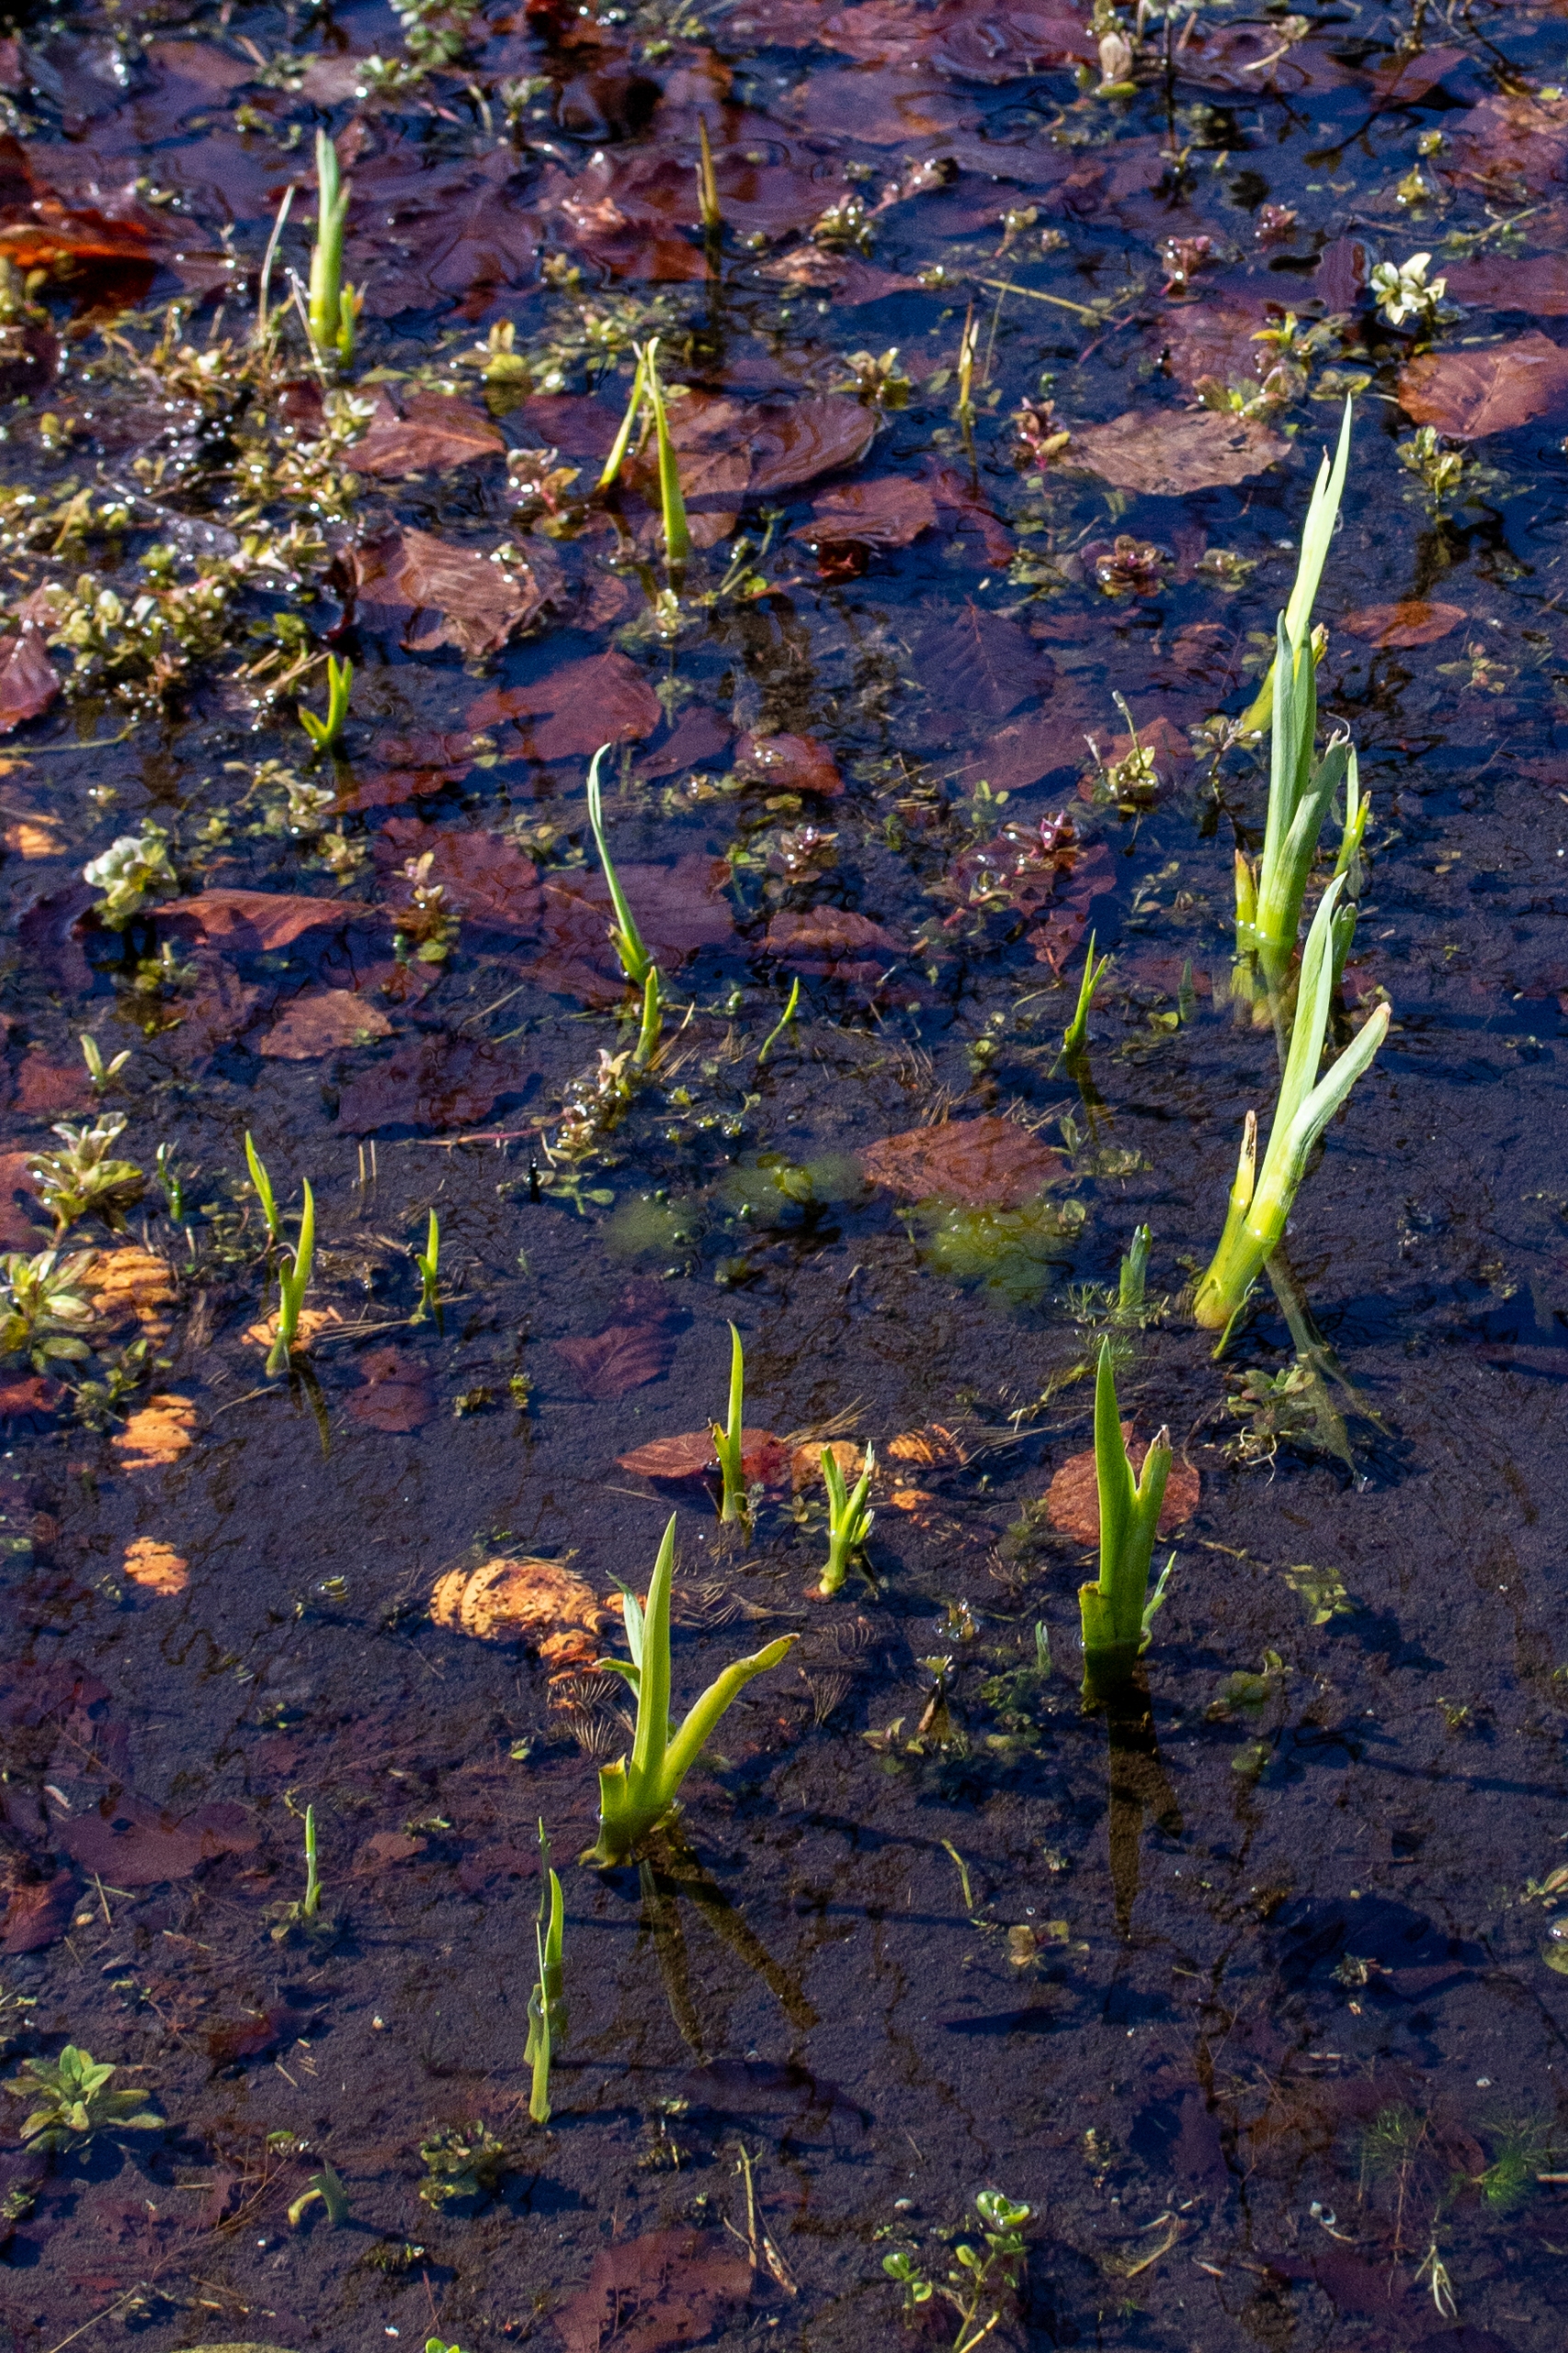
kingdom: Plantae
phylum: Tracheophyta
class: Liliopsida
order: Asparagales
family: Iridaceae
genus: Iris
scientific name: Iris pseudacorus
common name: Gul iris
